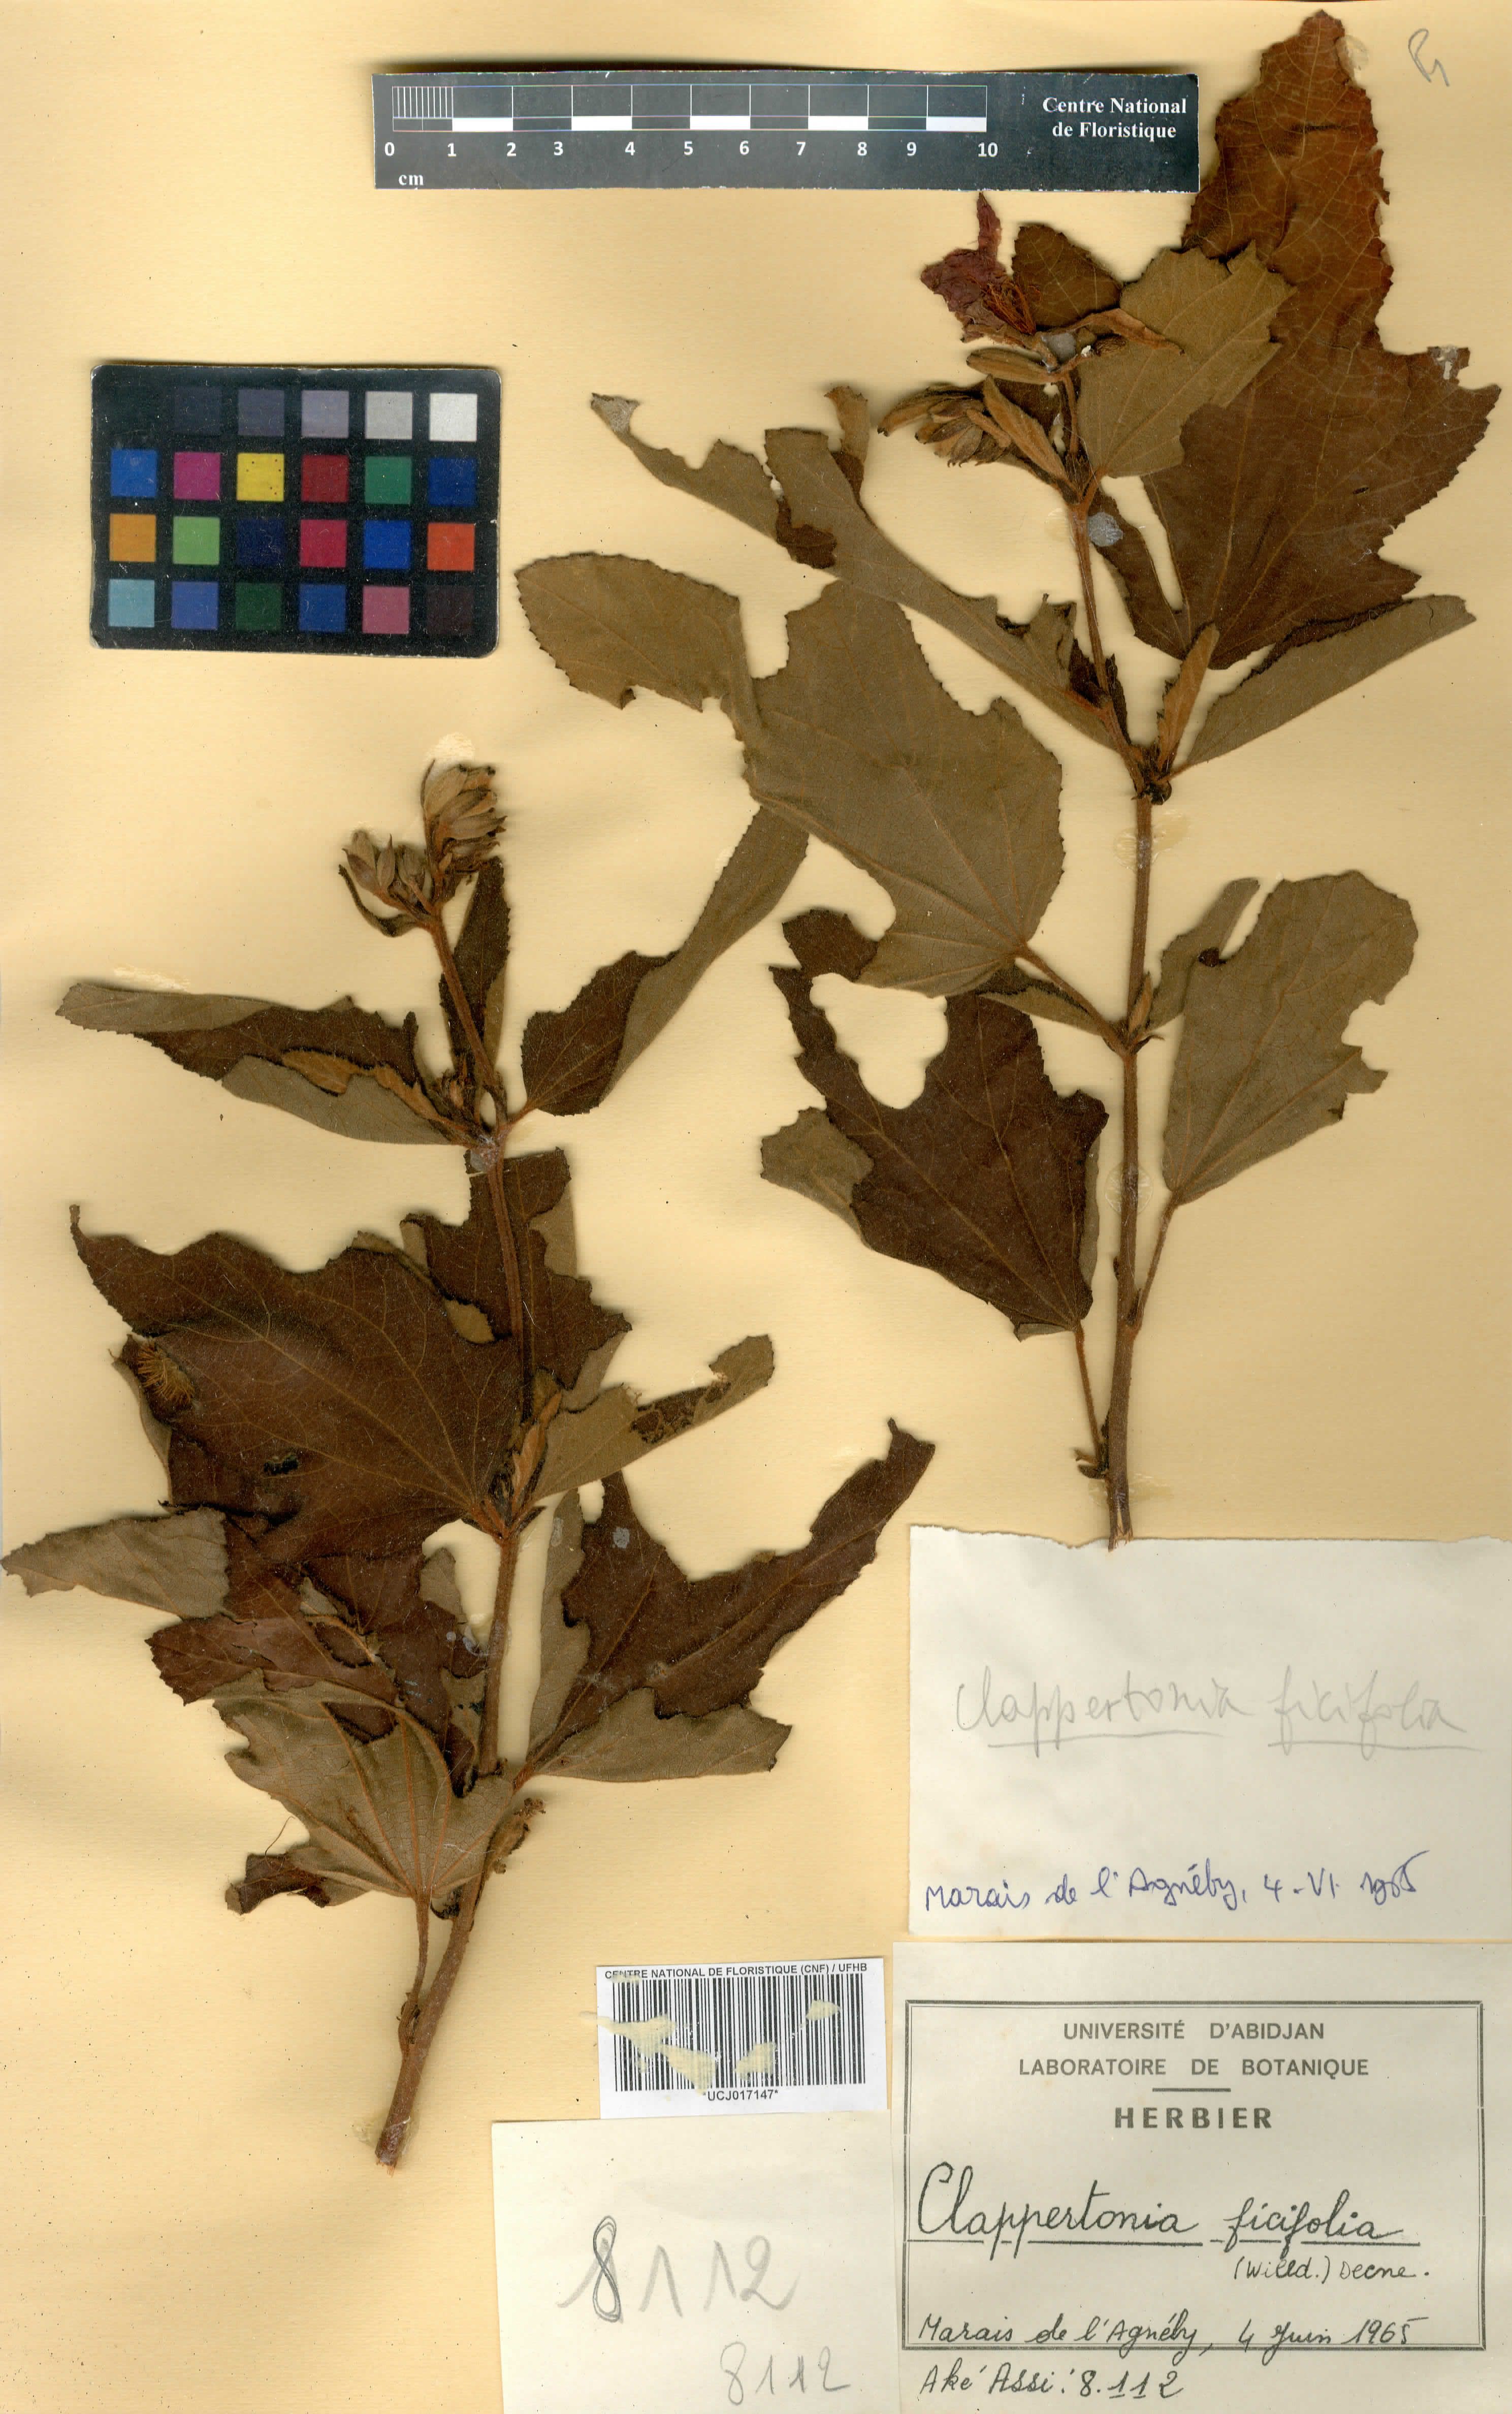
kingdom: Plantae
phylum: Tracheophyta
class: Magnoliopsida
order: Malvales
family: Malvaceae
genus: Clappertonia
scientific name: Clappertonia ficifolia
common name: Bolo-bolo
